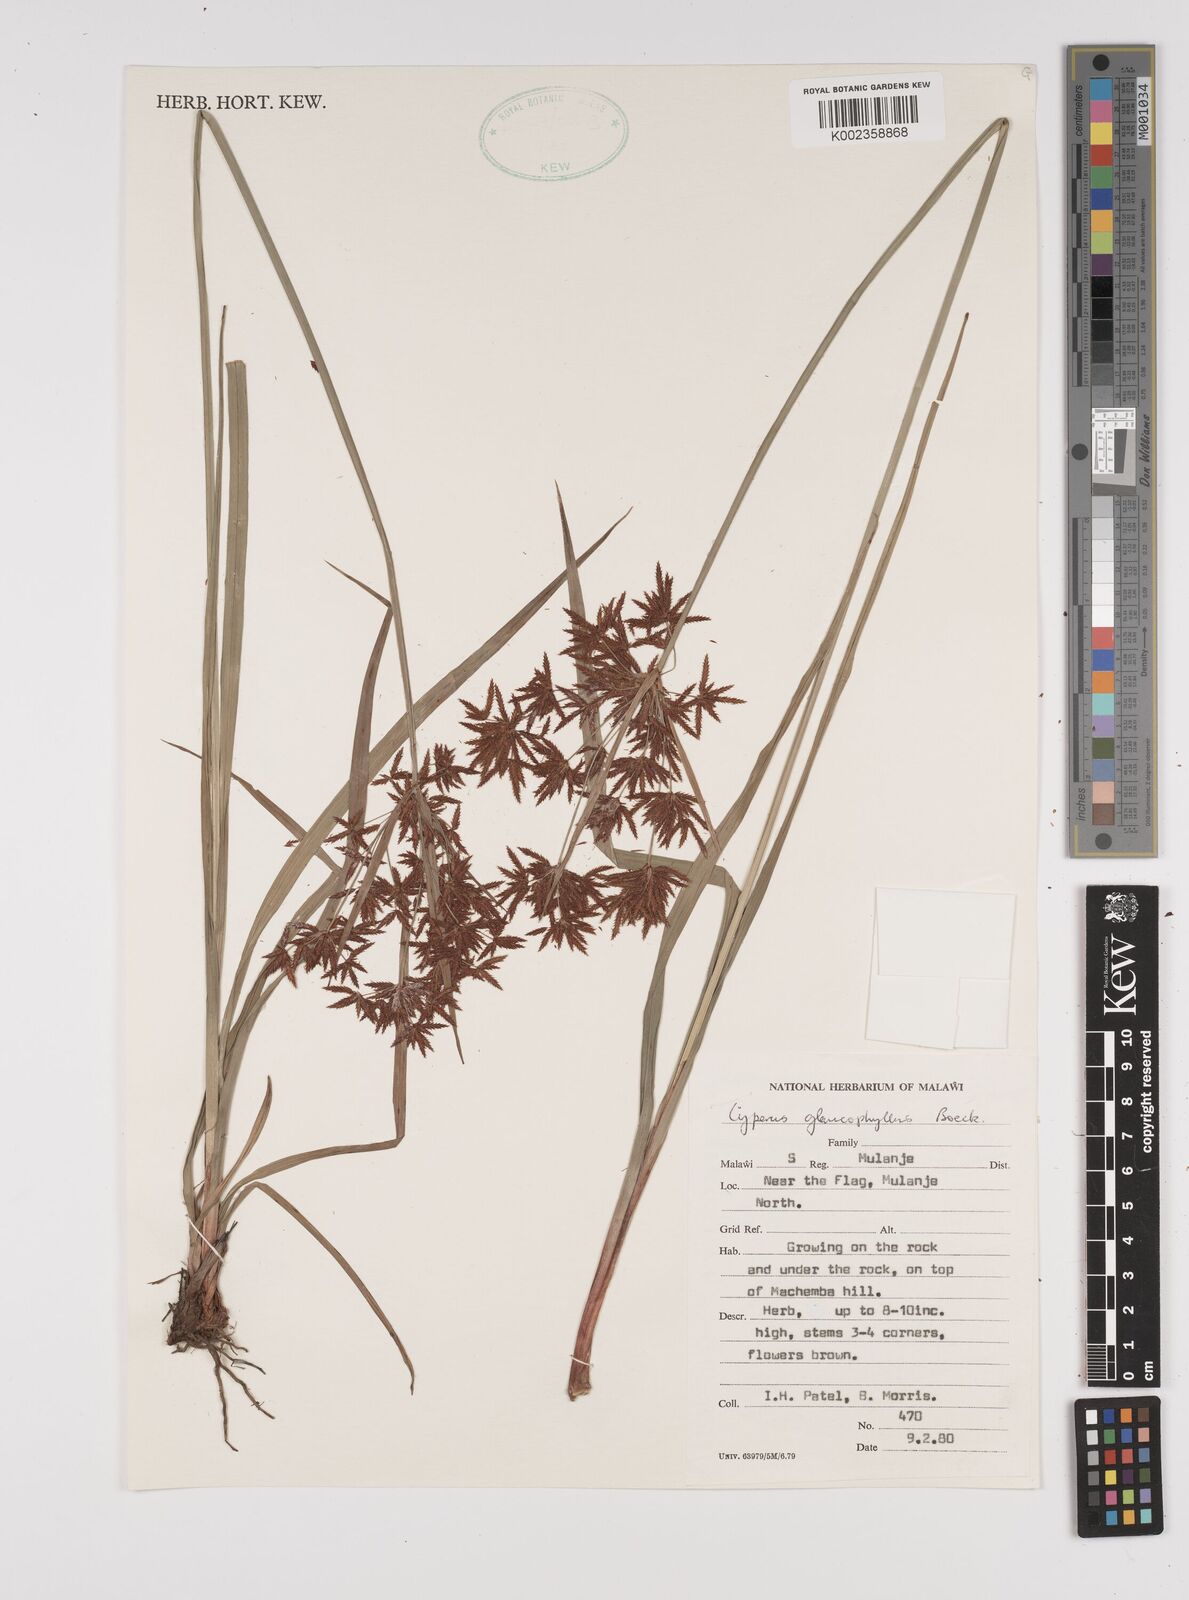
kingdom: Plantae
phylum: Tracheophyta
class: Liliopsida
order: Poales
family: Cyperaceae
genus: Cyperus
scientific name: Cyperus glaucophyllus
